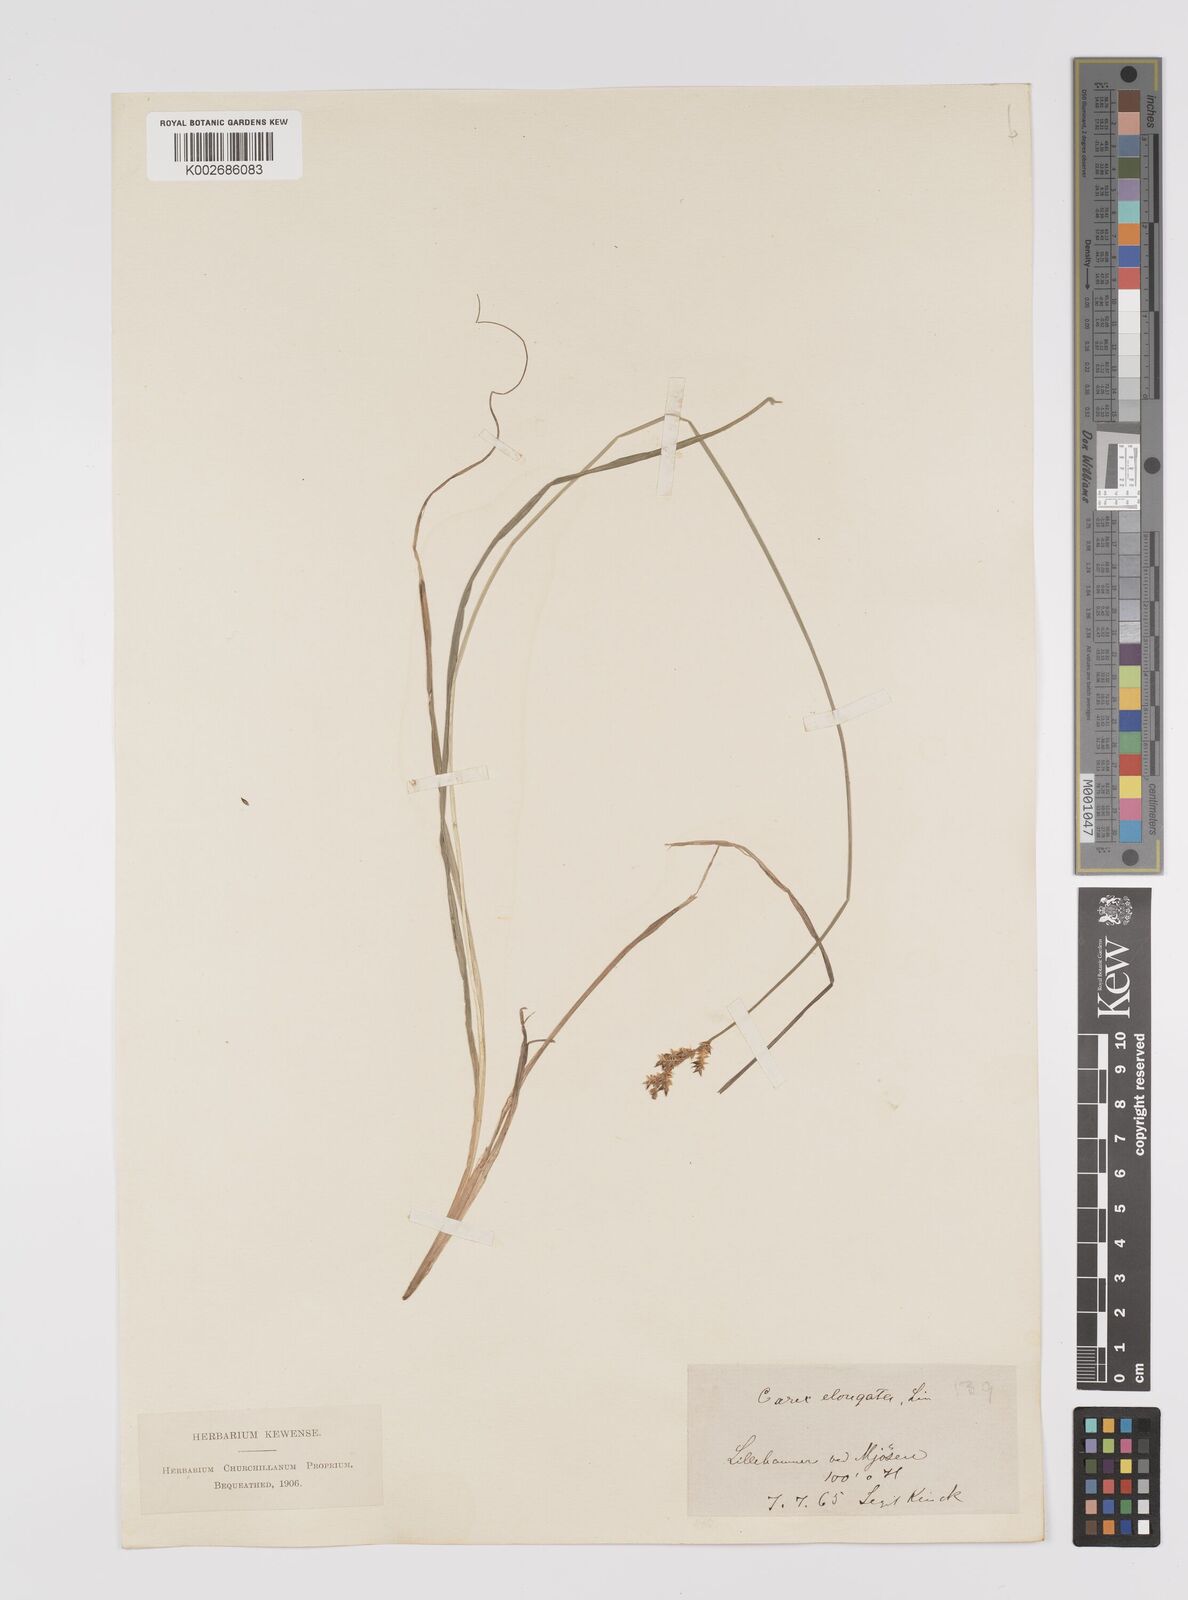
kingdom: Plantae
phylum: Tracheophyta
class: Liliopsida
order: Poales
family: Cyperaceae
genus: Carex
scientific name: Carex elongata
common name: Elongated sedge
